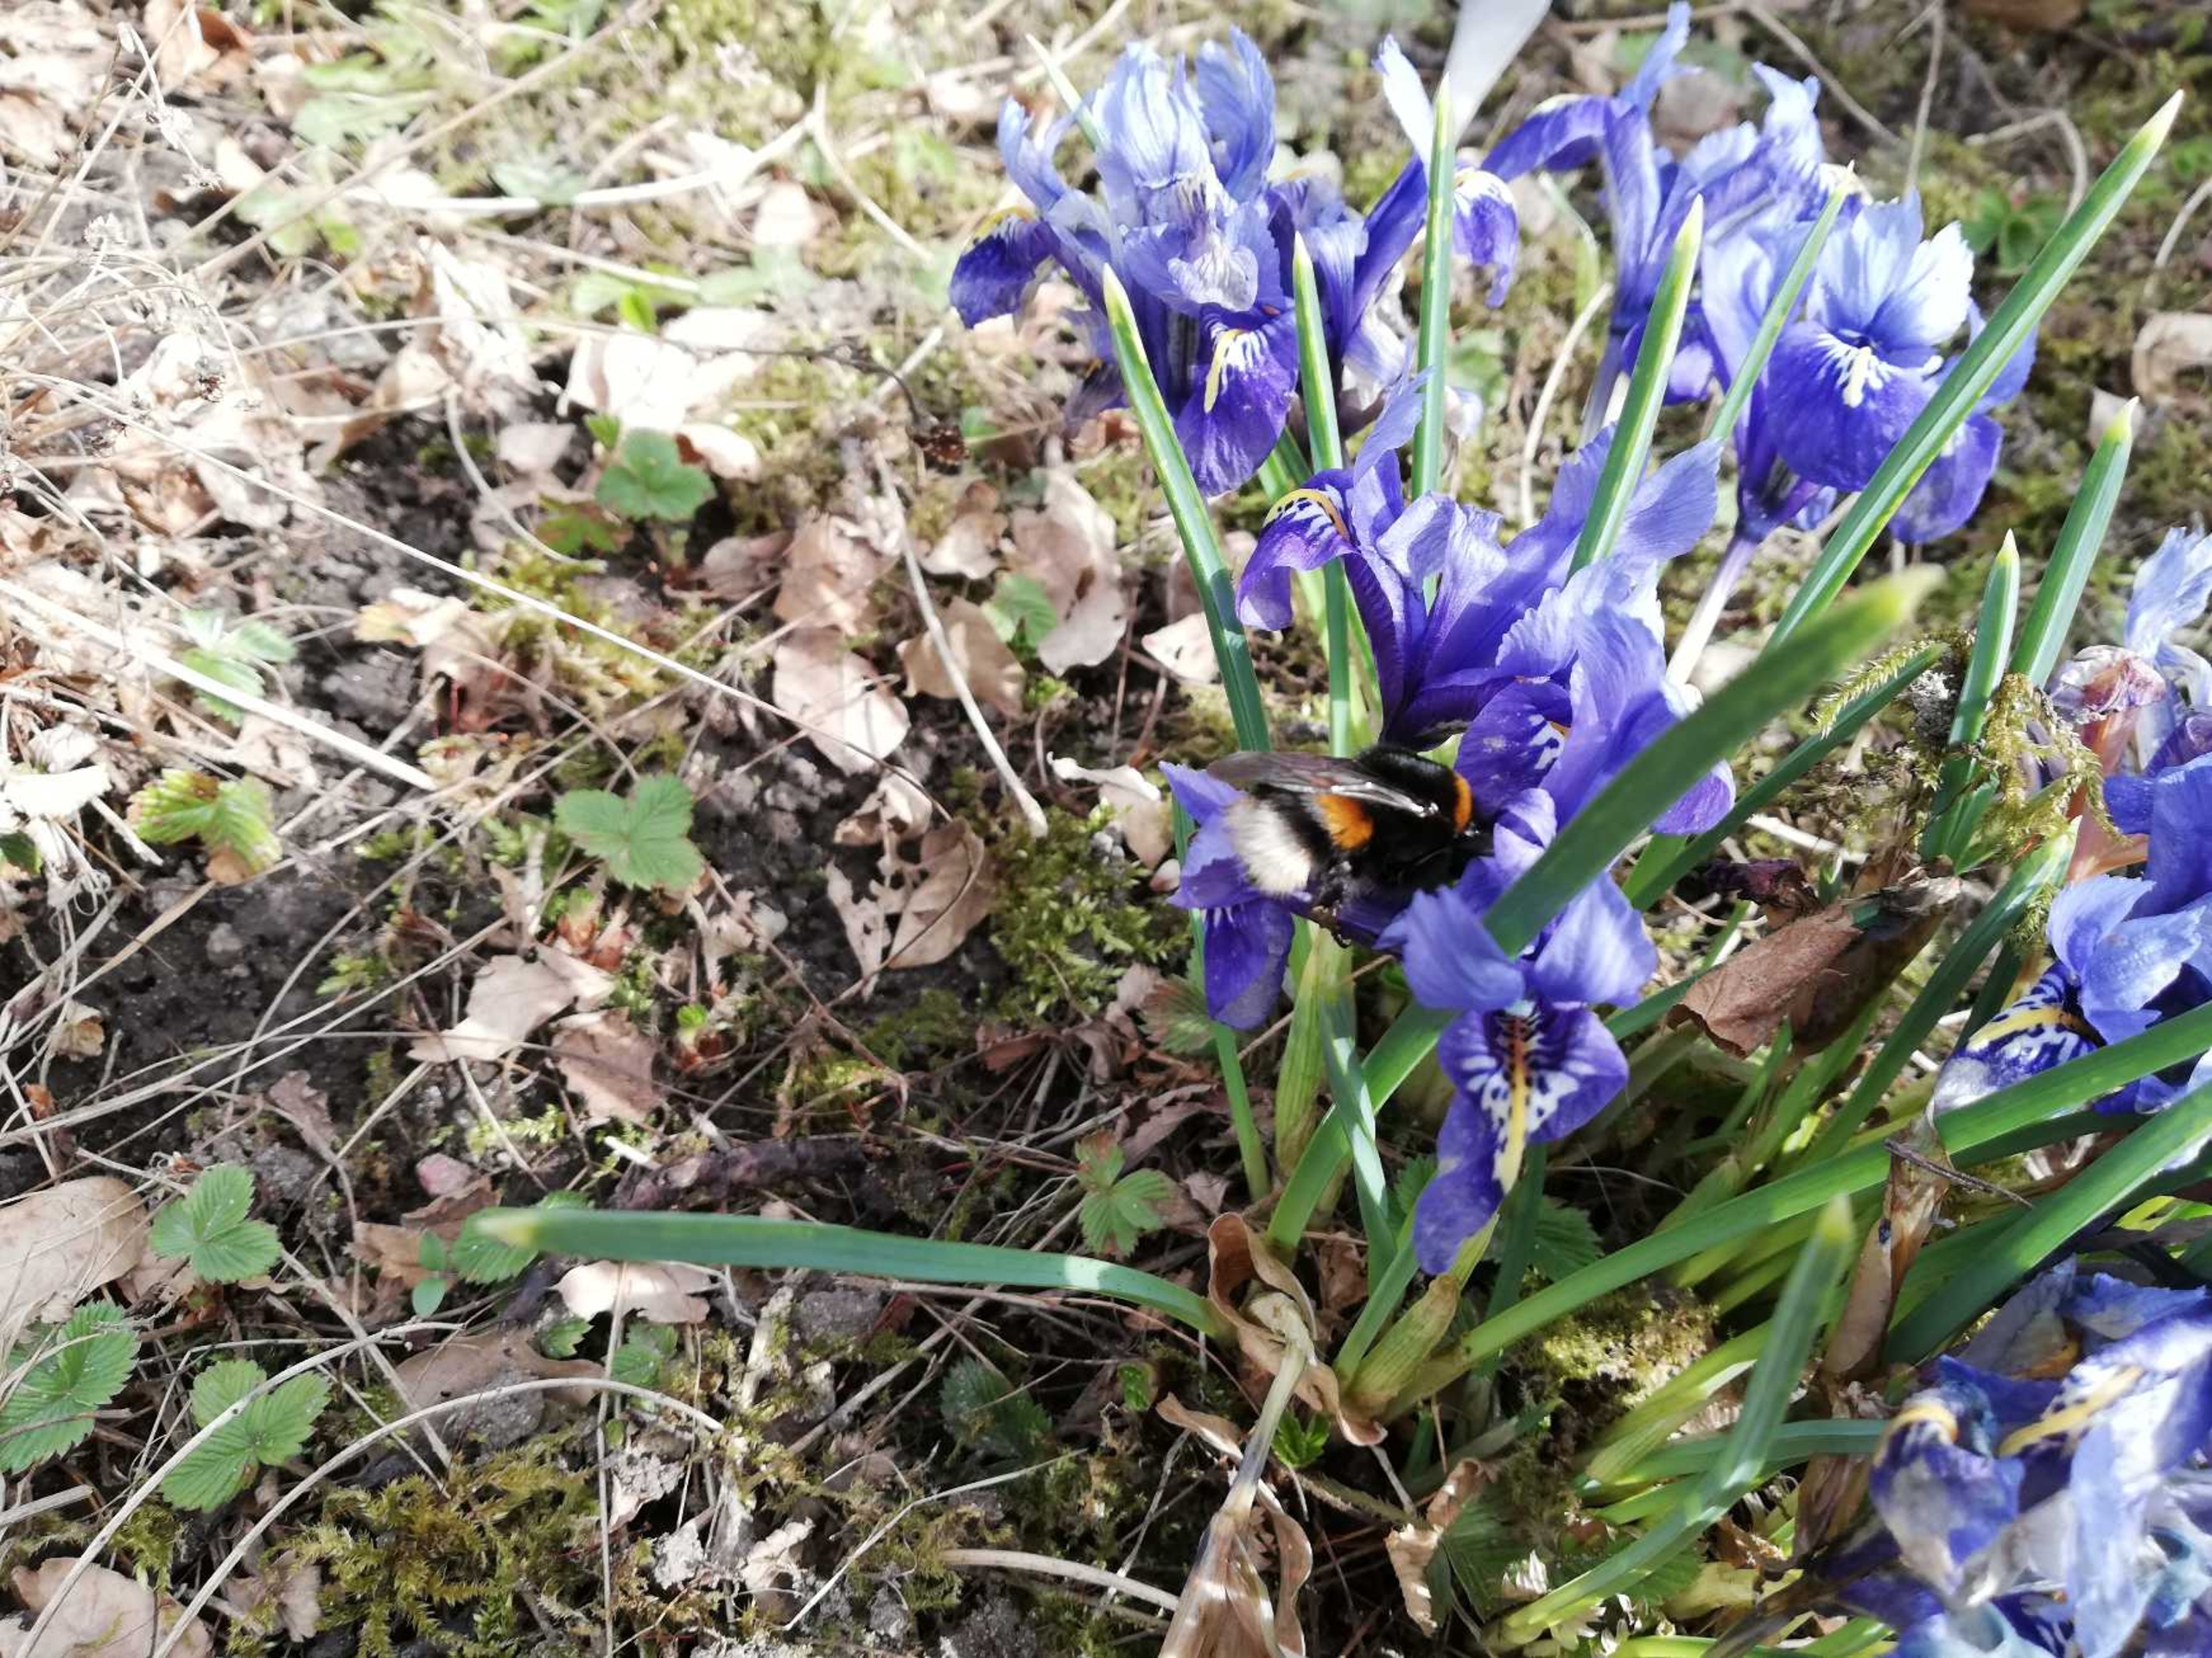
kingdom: Animalia
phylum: Arthropoda
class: Insecta
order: Hymenoptera
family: Apidae
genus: Bombus
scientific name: Bombus terrestris
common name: Mørk jordhumle
